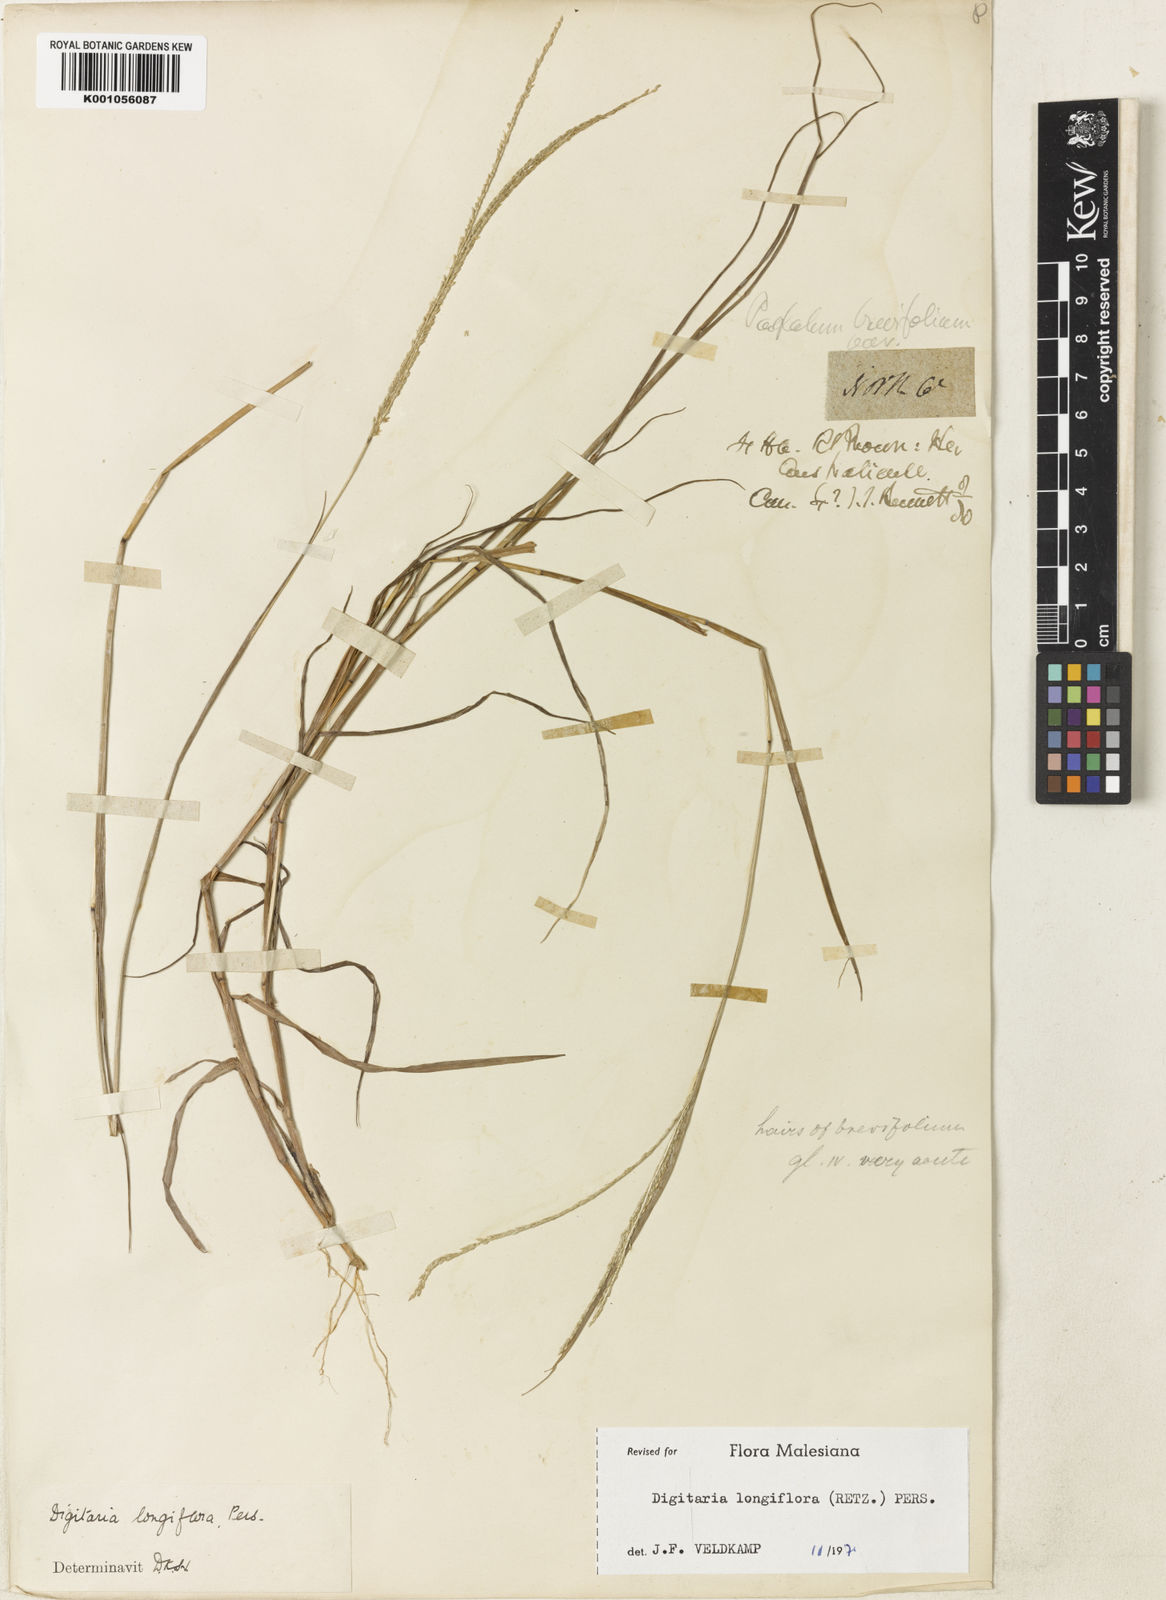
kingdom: Plantae
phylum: Tracheophyta
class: Liliopsida
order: Poales
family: Poaceae
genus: Digitaria
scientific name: Digitaria longiflora
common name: Wire crabgrass
